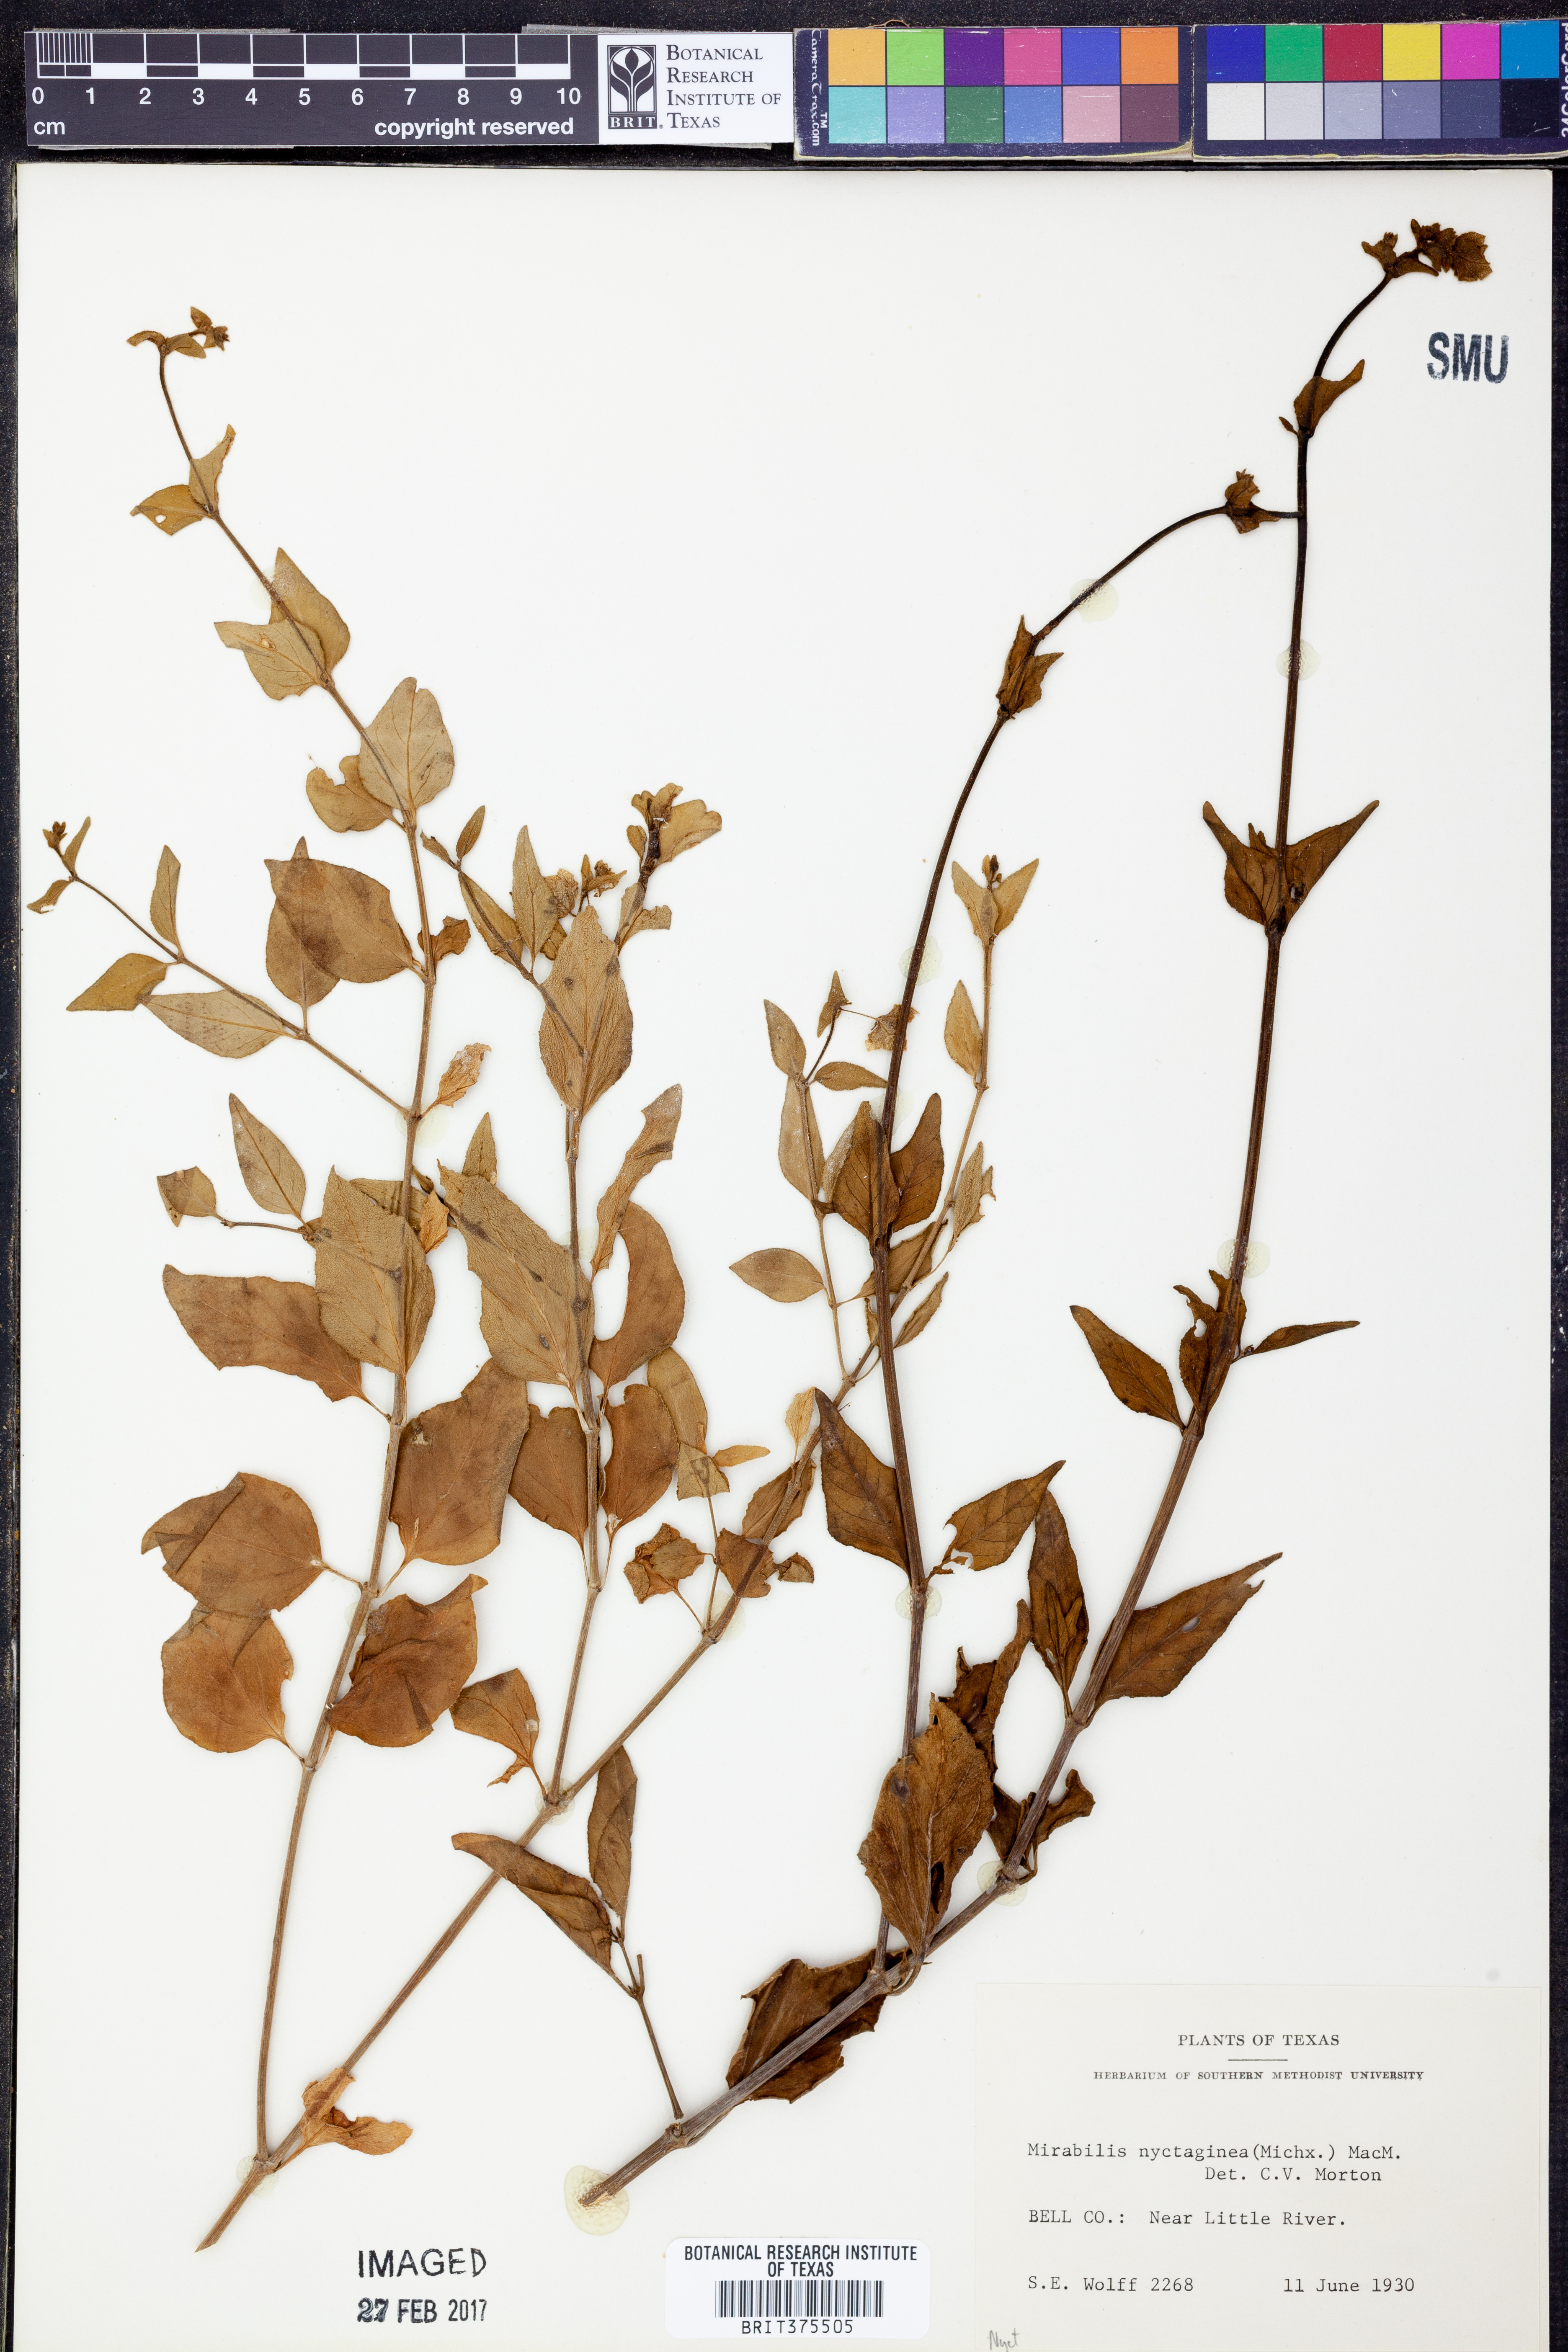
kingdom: Plantae
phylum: Tracheophyta
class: Magnoliopsida
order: Caryophyllales
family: Nyctaginaceae
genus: Mirabilis
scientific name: Mirabilis nyctaginea
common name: Umbrella wort
